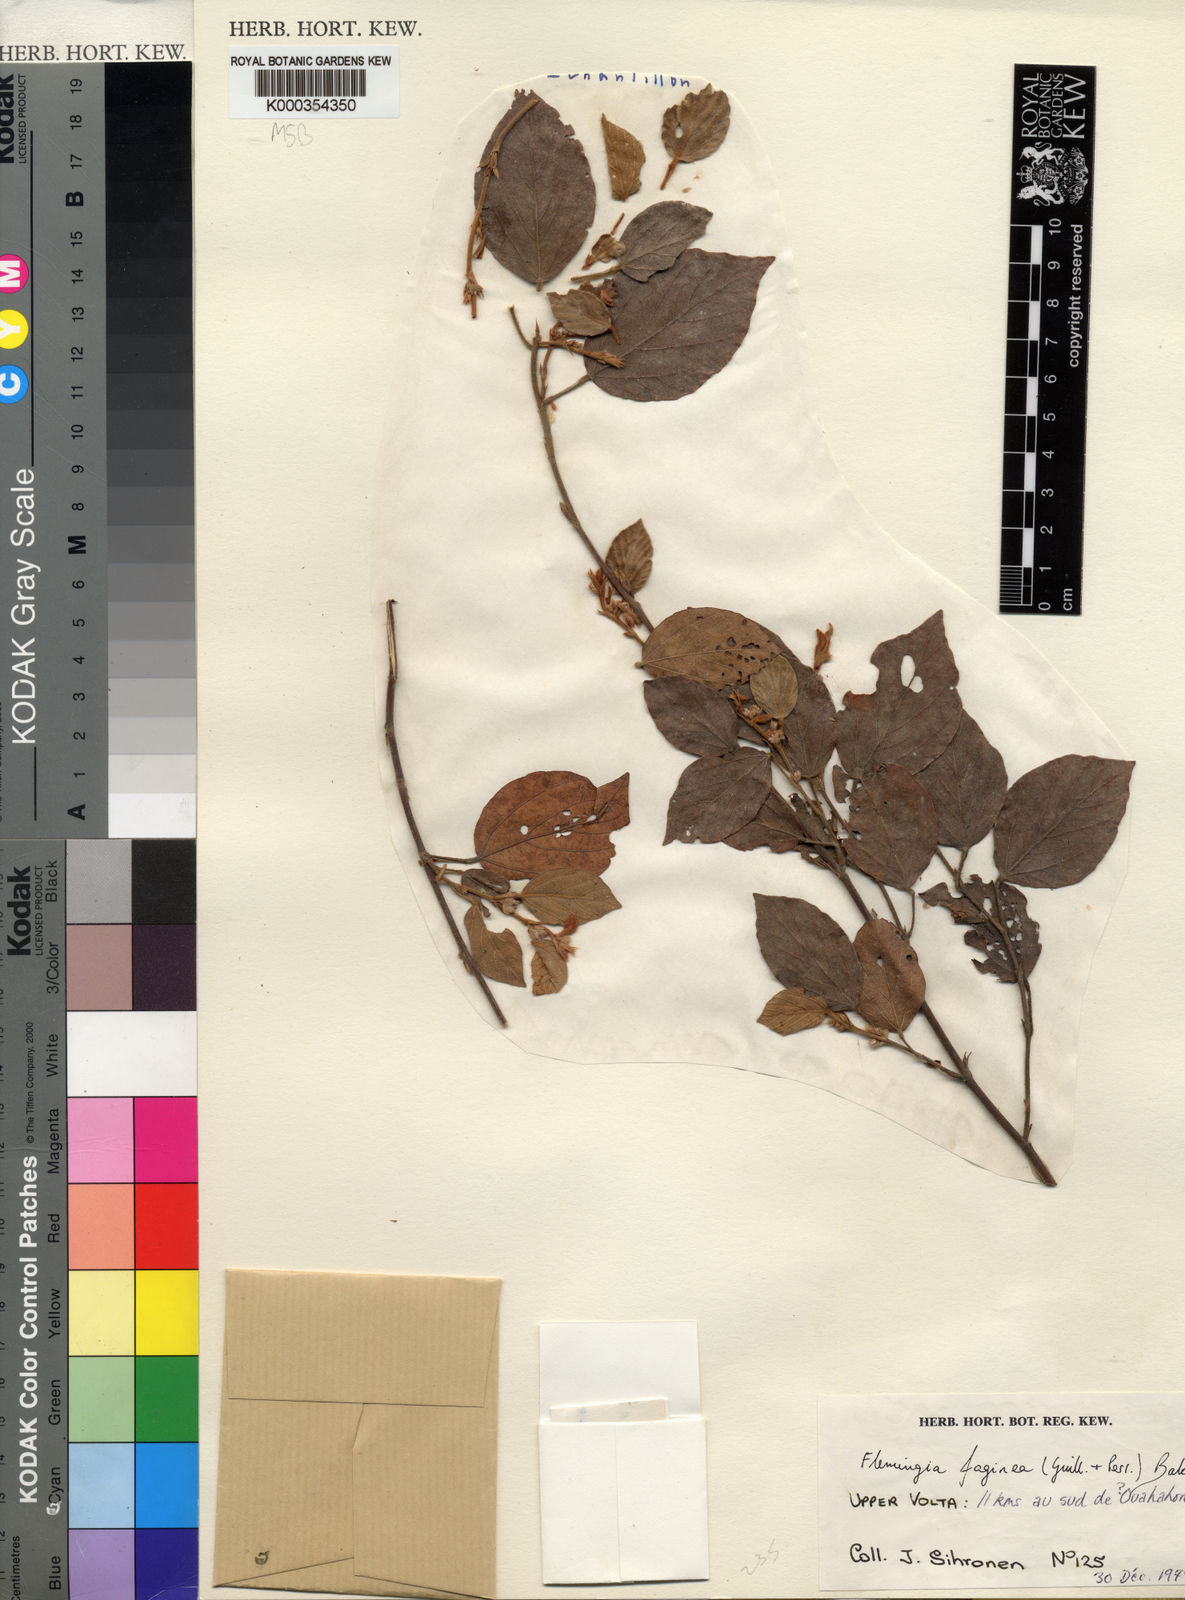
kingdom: Plantae
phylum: Tracheophyta
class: Magnoliopsida
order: Fabales
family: Fabaceae
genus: Flemingia
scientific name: Flemingia faginea
